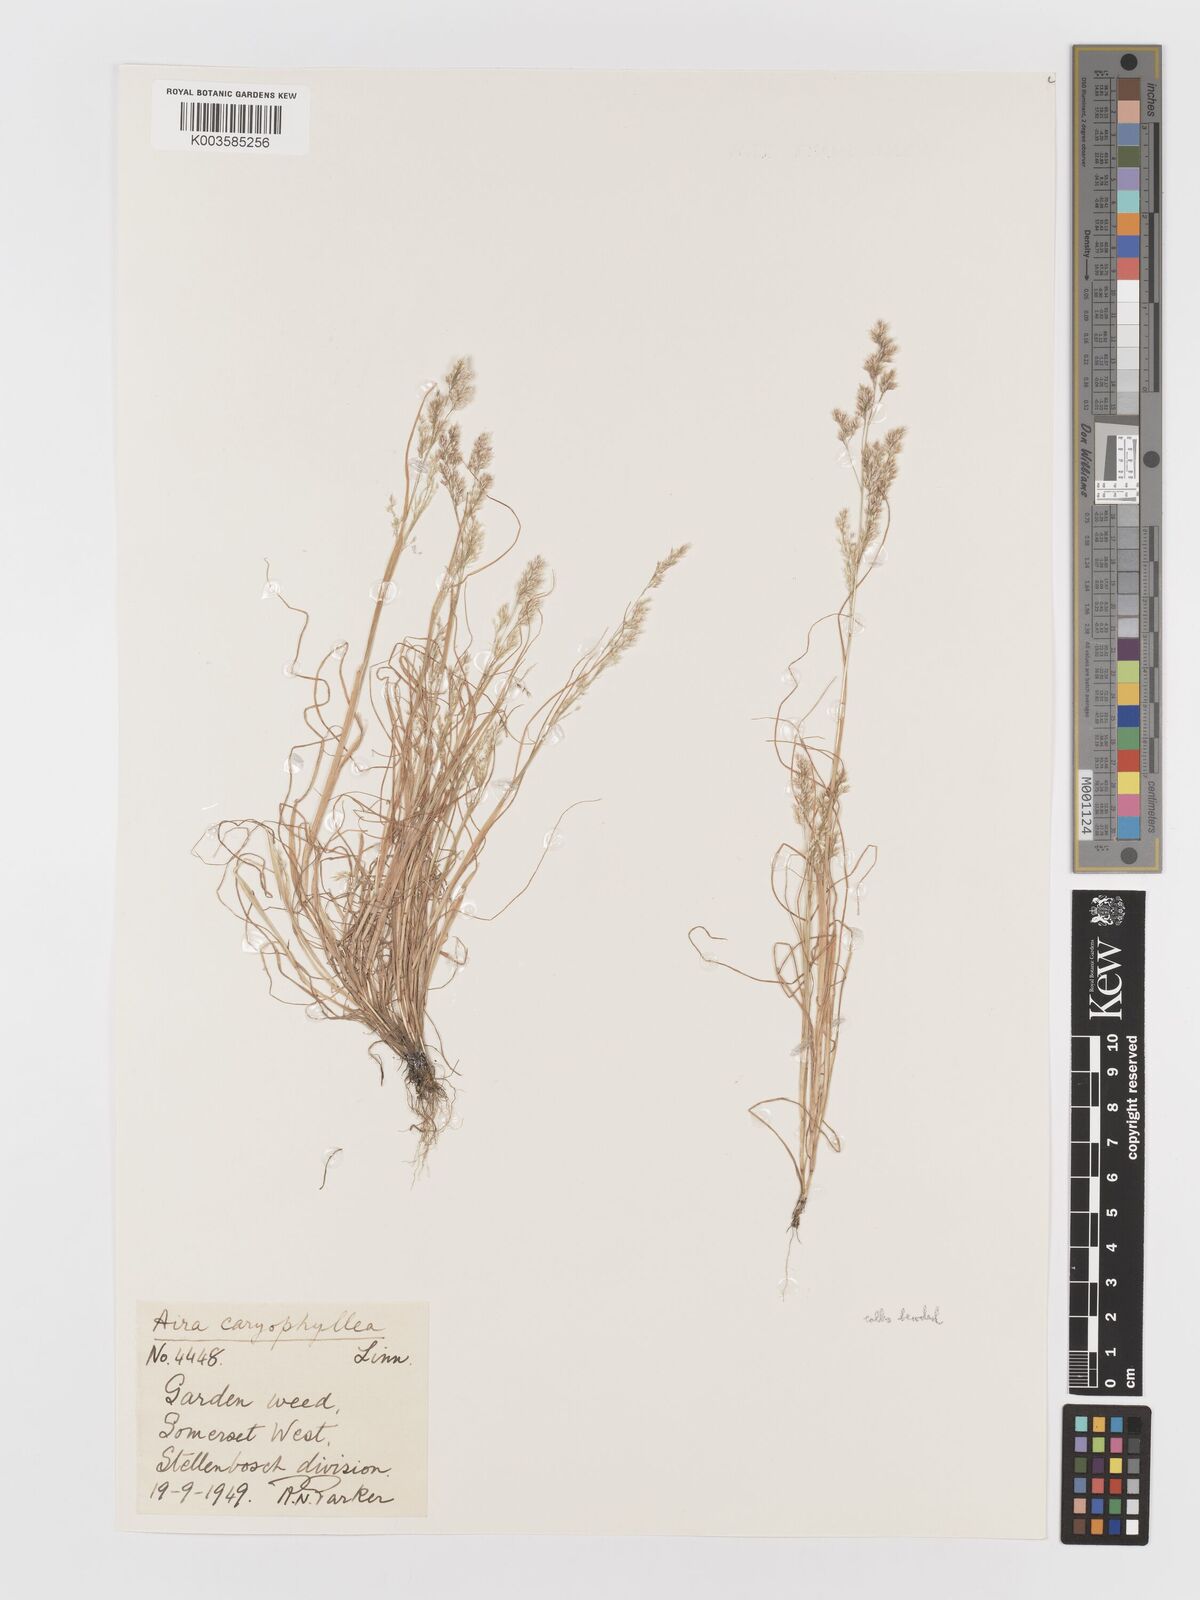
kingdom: Plantae
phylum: Tracheophyta
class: Liliopsida
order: Poales
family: Poaceae
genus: Aira
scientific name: Aira caryophyllea
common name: Silver hairgrass
